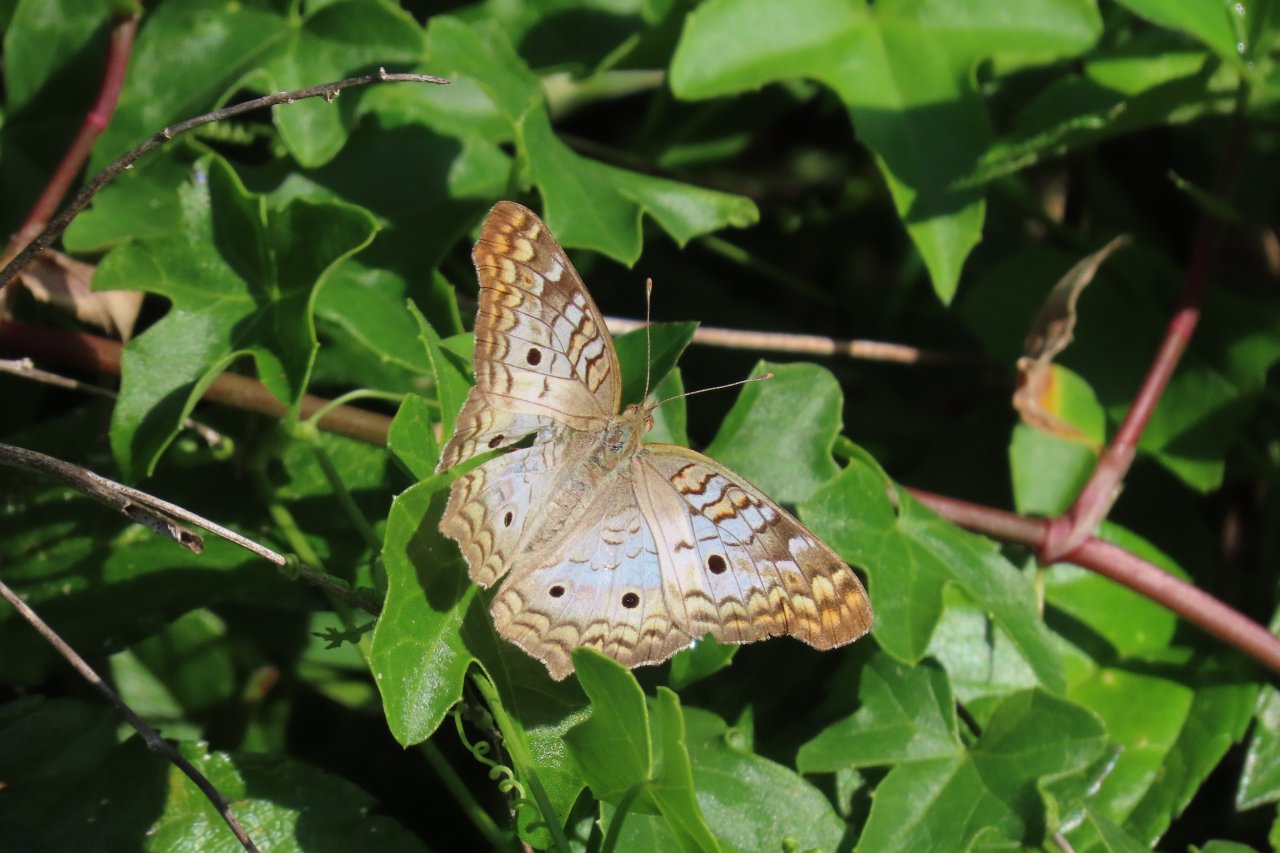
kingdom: Animalia
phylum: Arthropoda
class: Insecta
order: Lepidoptera
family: Nymphalidae
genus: Anartia
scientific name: Anartia jatrophae
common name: White Peacock
